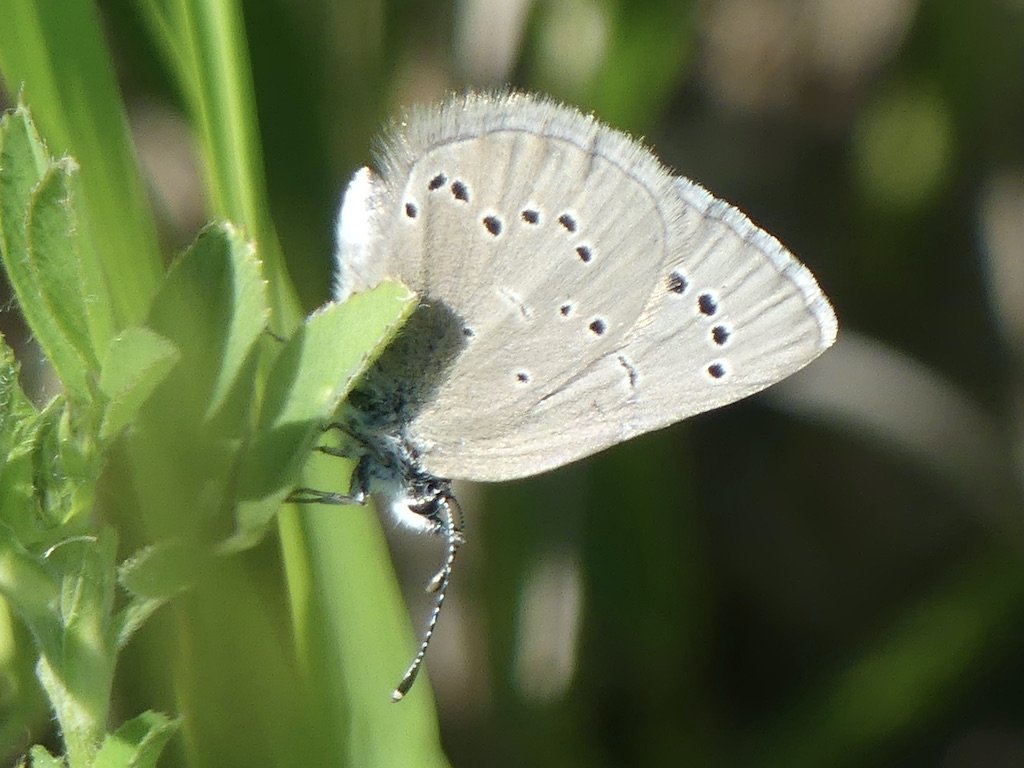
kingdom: Animalia
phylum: Arthropoda
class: Insecta
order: Lepidoptera
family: Lycaenidae
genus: Glaucopsyche
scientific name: Glaucopsyche lygdamus
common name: Silvery Blue
